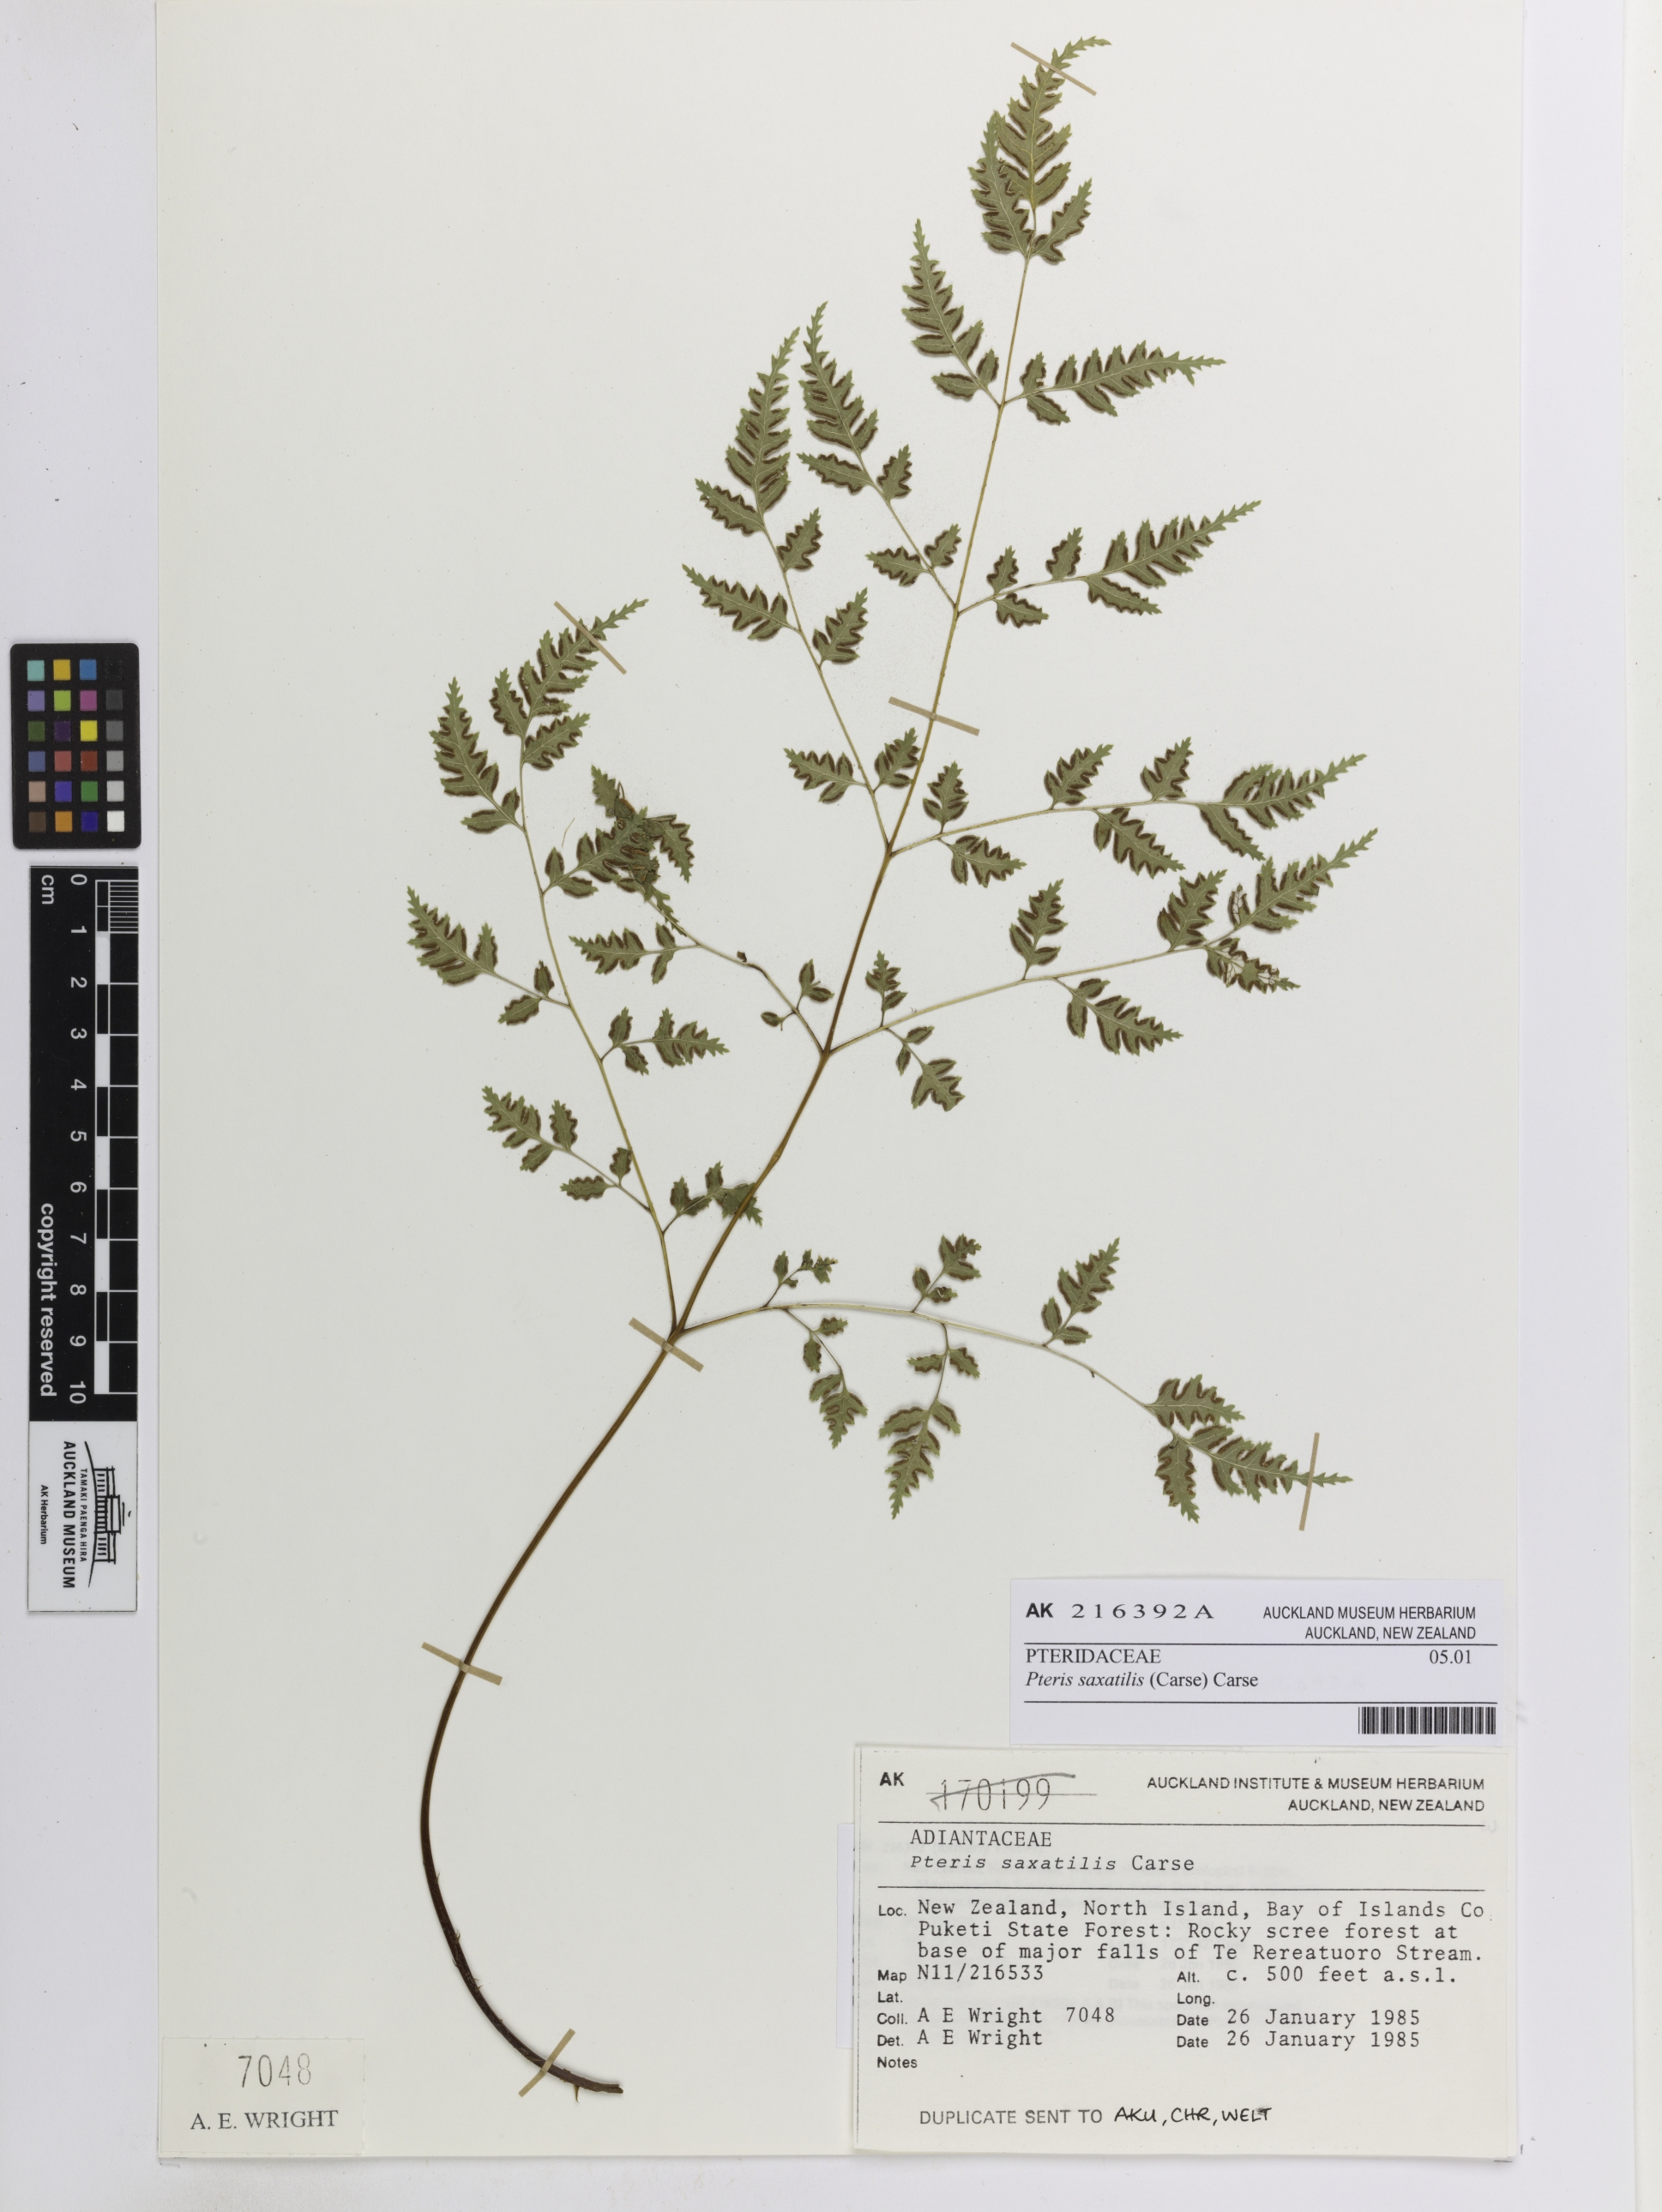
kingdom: Plantae
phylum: Tracheophyta
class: Polypodiopsida
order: Polypodiales
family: Pteridaceae
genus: Pteris
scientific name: Pteris saxatilis
